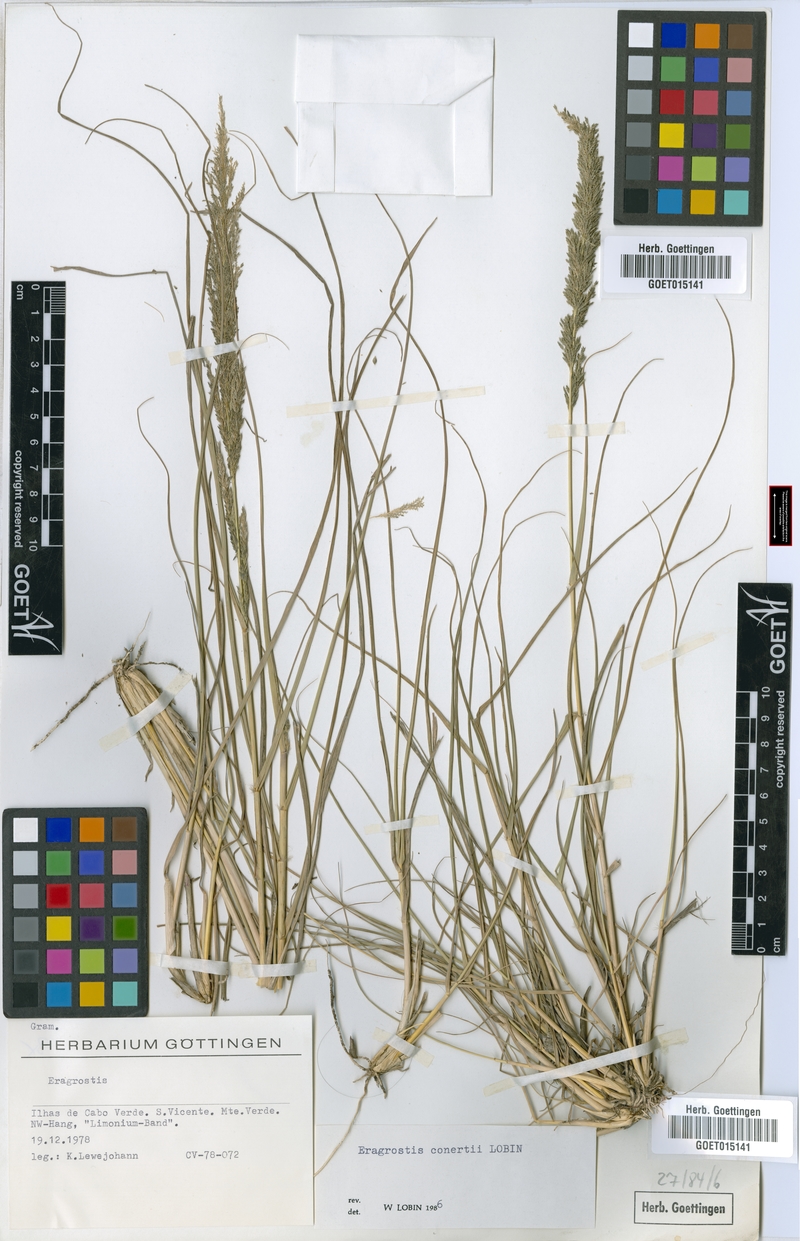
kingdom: Plantae
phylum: Tracheophyta
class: Liliopsida
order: Poales
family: Poaceae
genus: Eragrostis
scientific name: Eragrostis conertii
